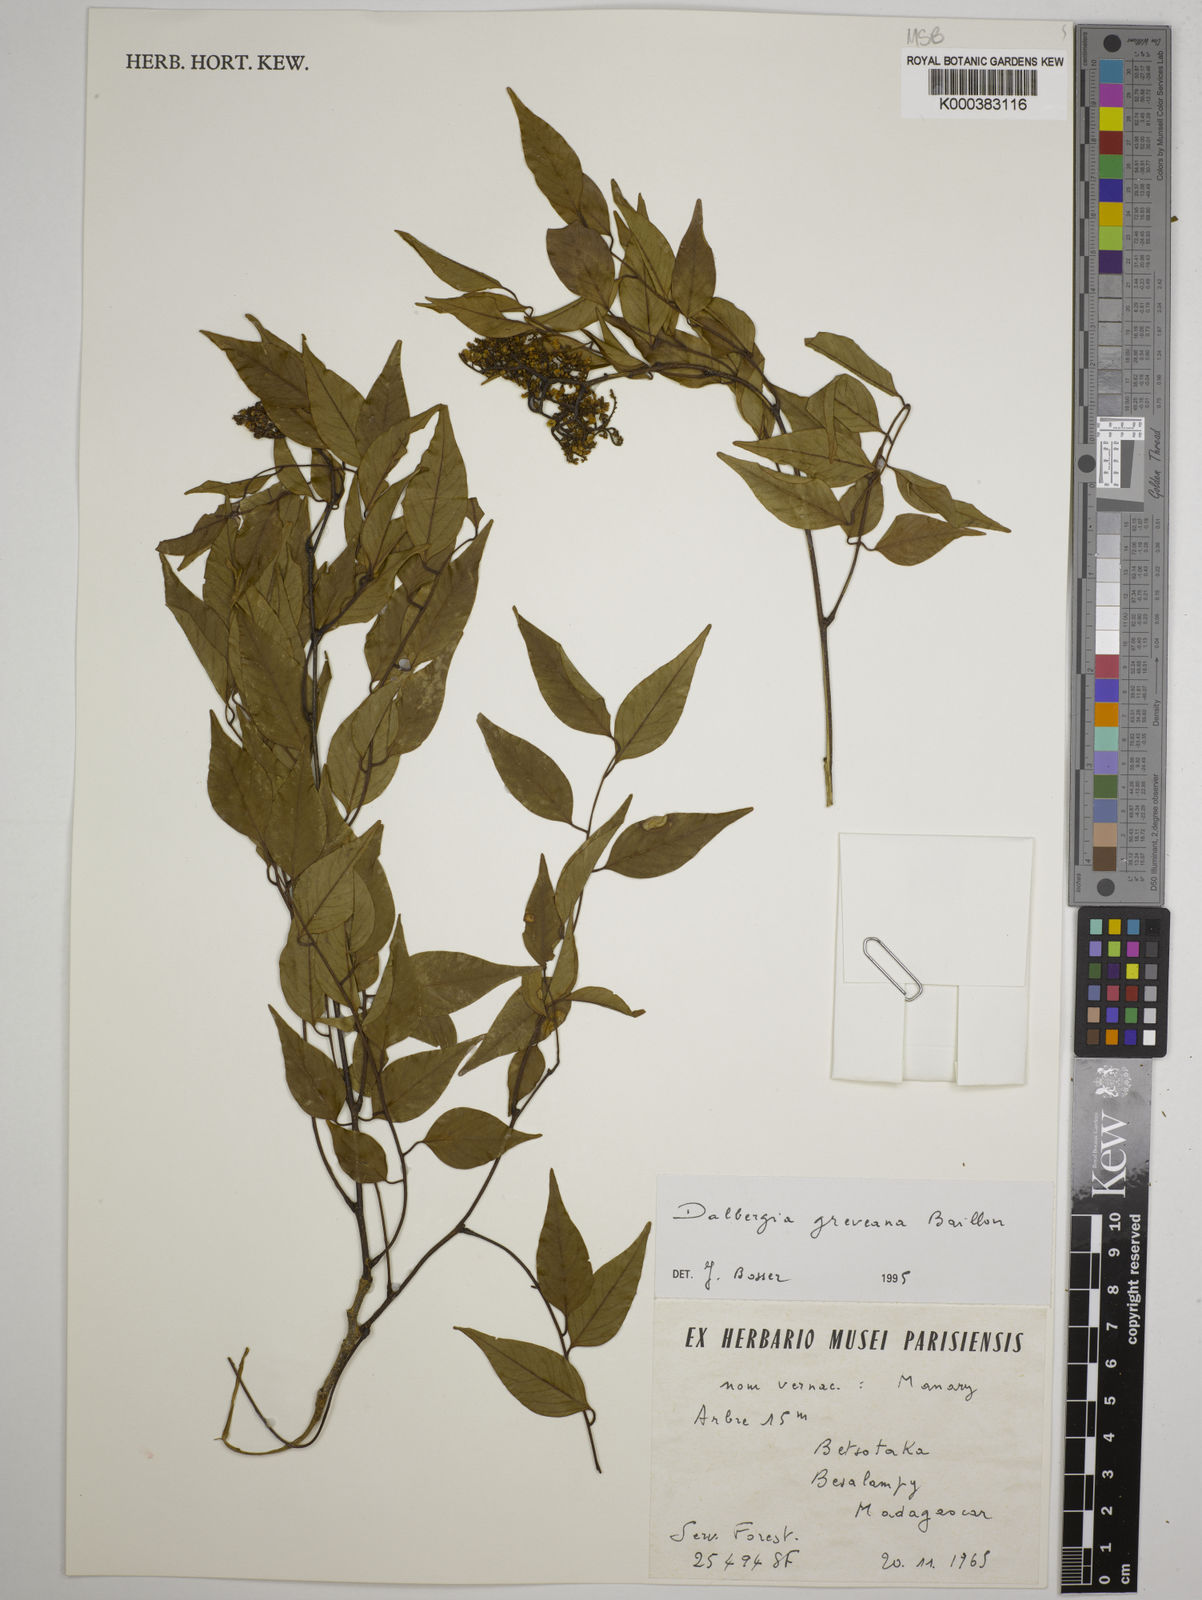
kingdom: Plantae
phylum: Tracheophyta
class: Magnoliopsida
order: Fabales
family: Fabaceae
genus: Dalbergia
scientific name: Dalbergia greveana
